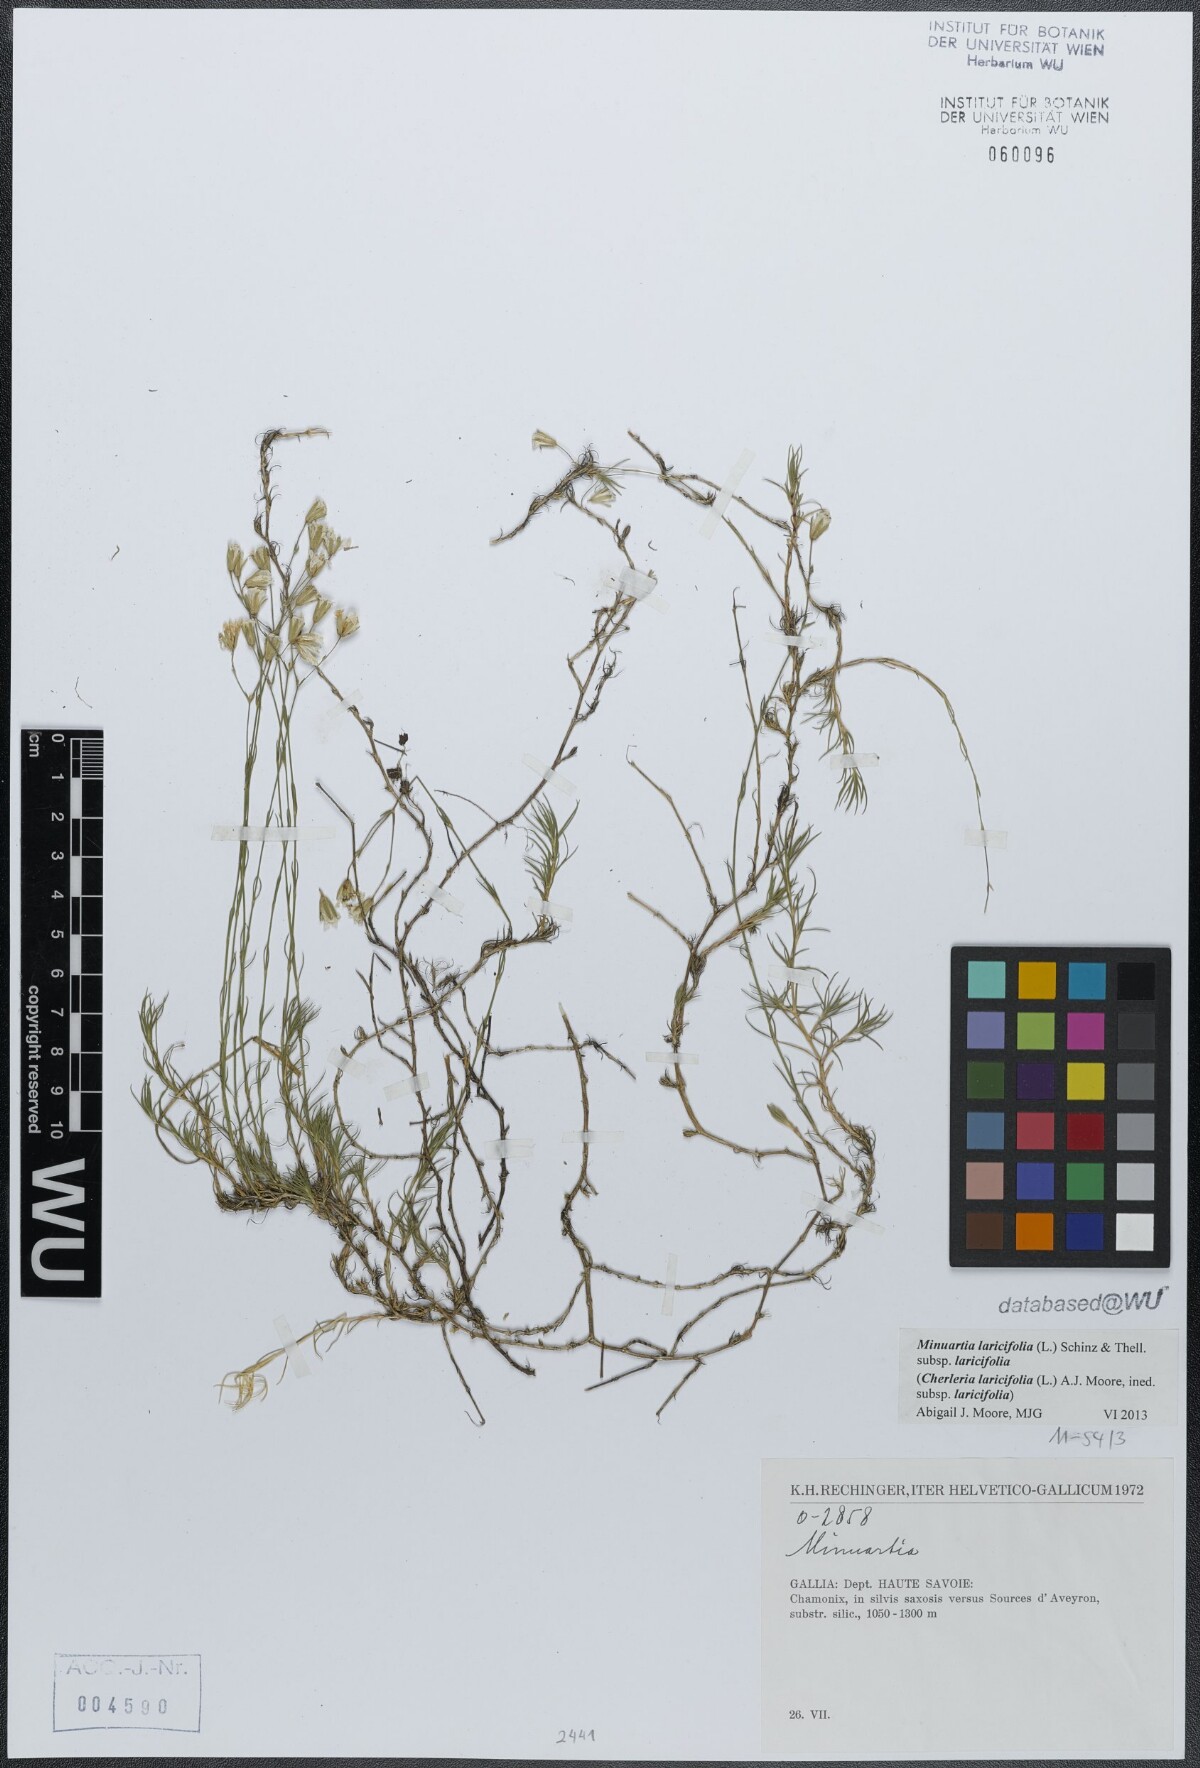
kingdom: Plantae
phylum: Tracheophyta
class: Magnoliopsida
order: Caryophyllales
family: Caryophyllaceae
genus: Cherleria
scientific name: Cherleria laricifolia
